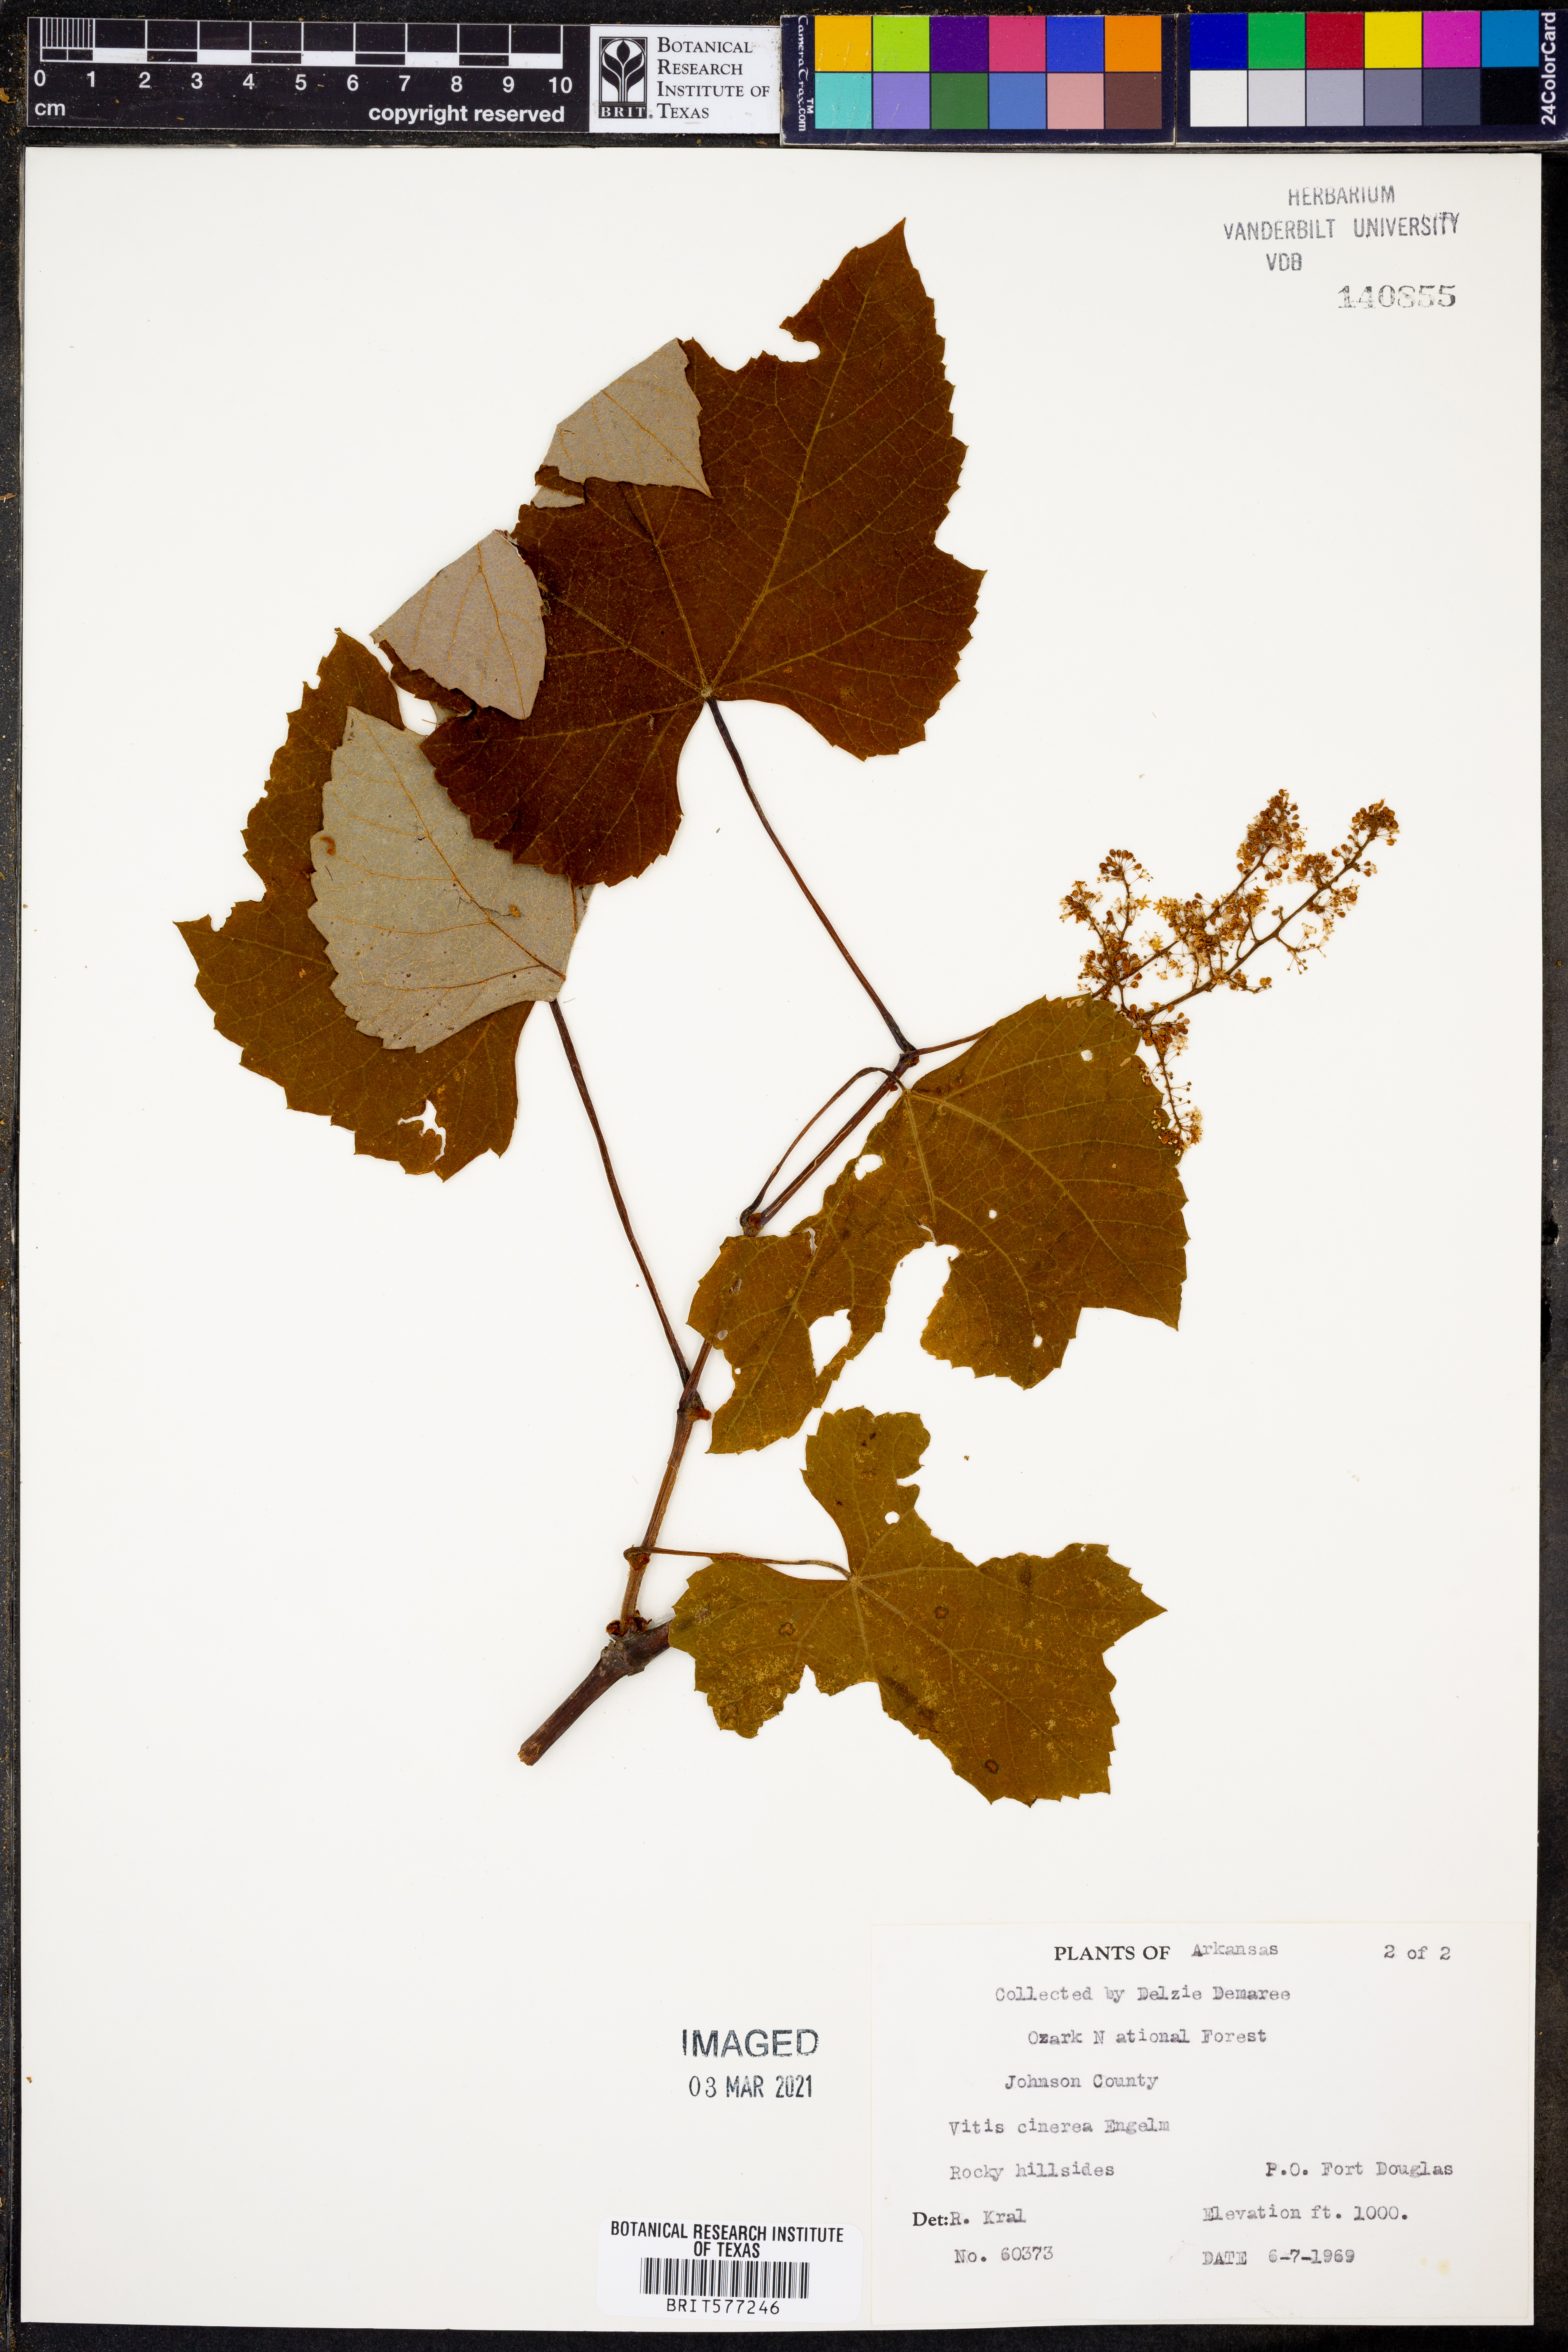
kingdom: Plantae
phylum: Tracheophyta
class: Magnoliopsida
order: Vitales
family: Vitaceae
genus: Vitis
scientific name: Vitis cinerea
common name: Ashy grape
